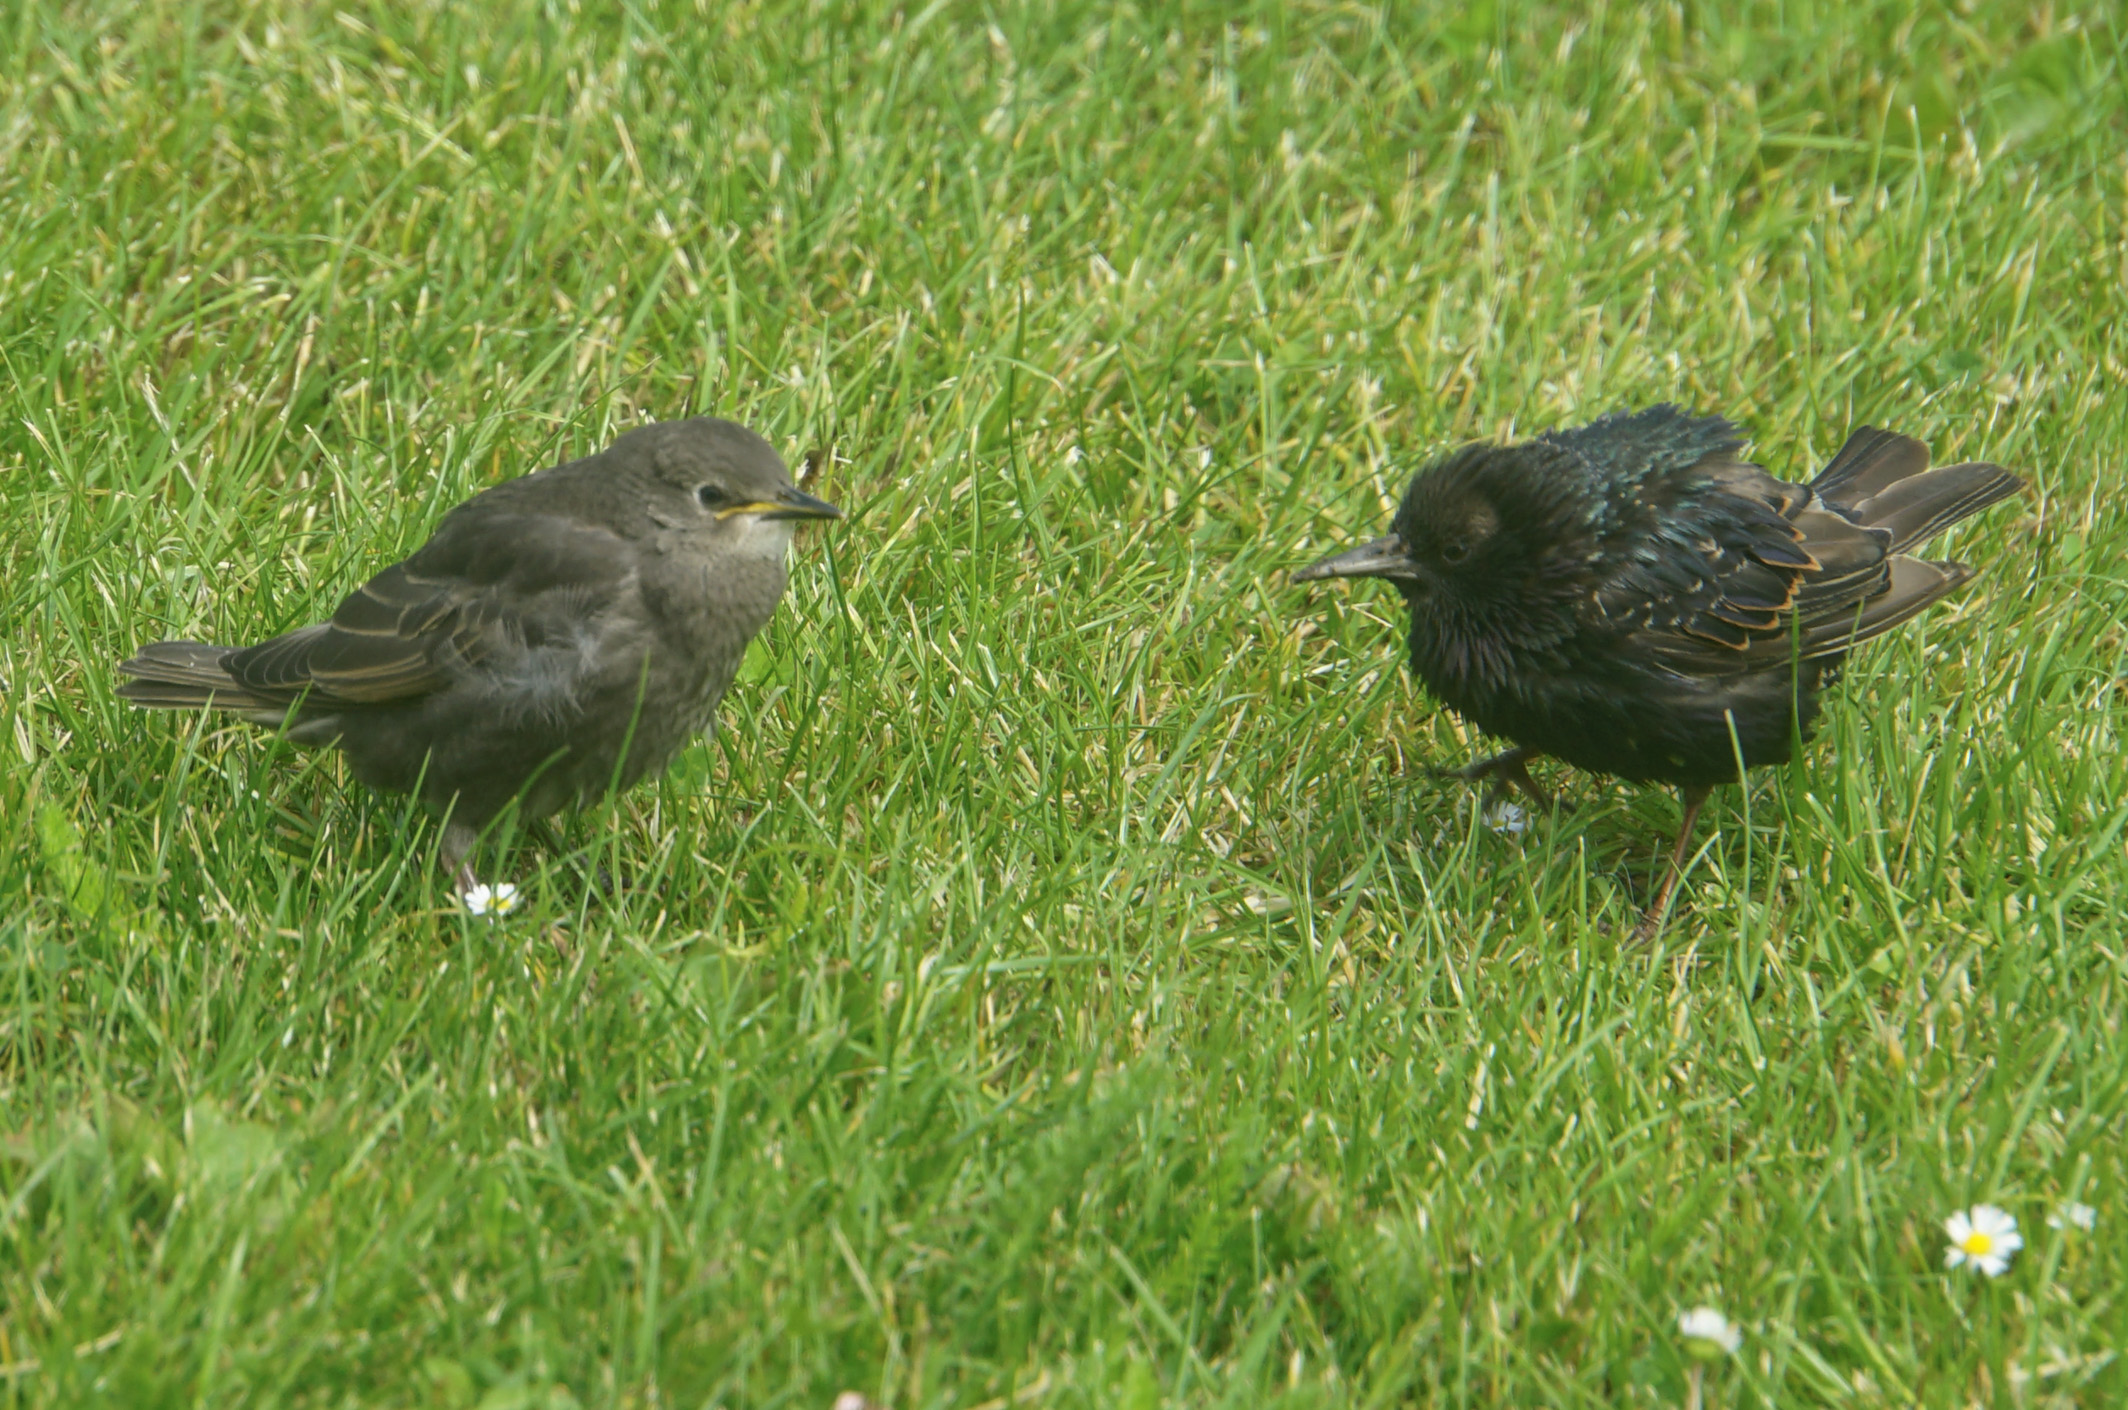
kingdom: Animalia
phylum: Chordata
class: Aves
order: Passeriformes
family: Sturnidae
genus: Sturnus
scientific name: Sturnus vulgaris
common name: Common starling
